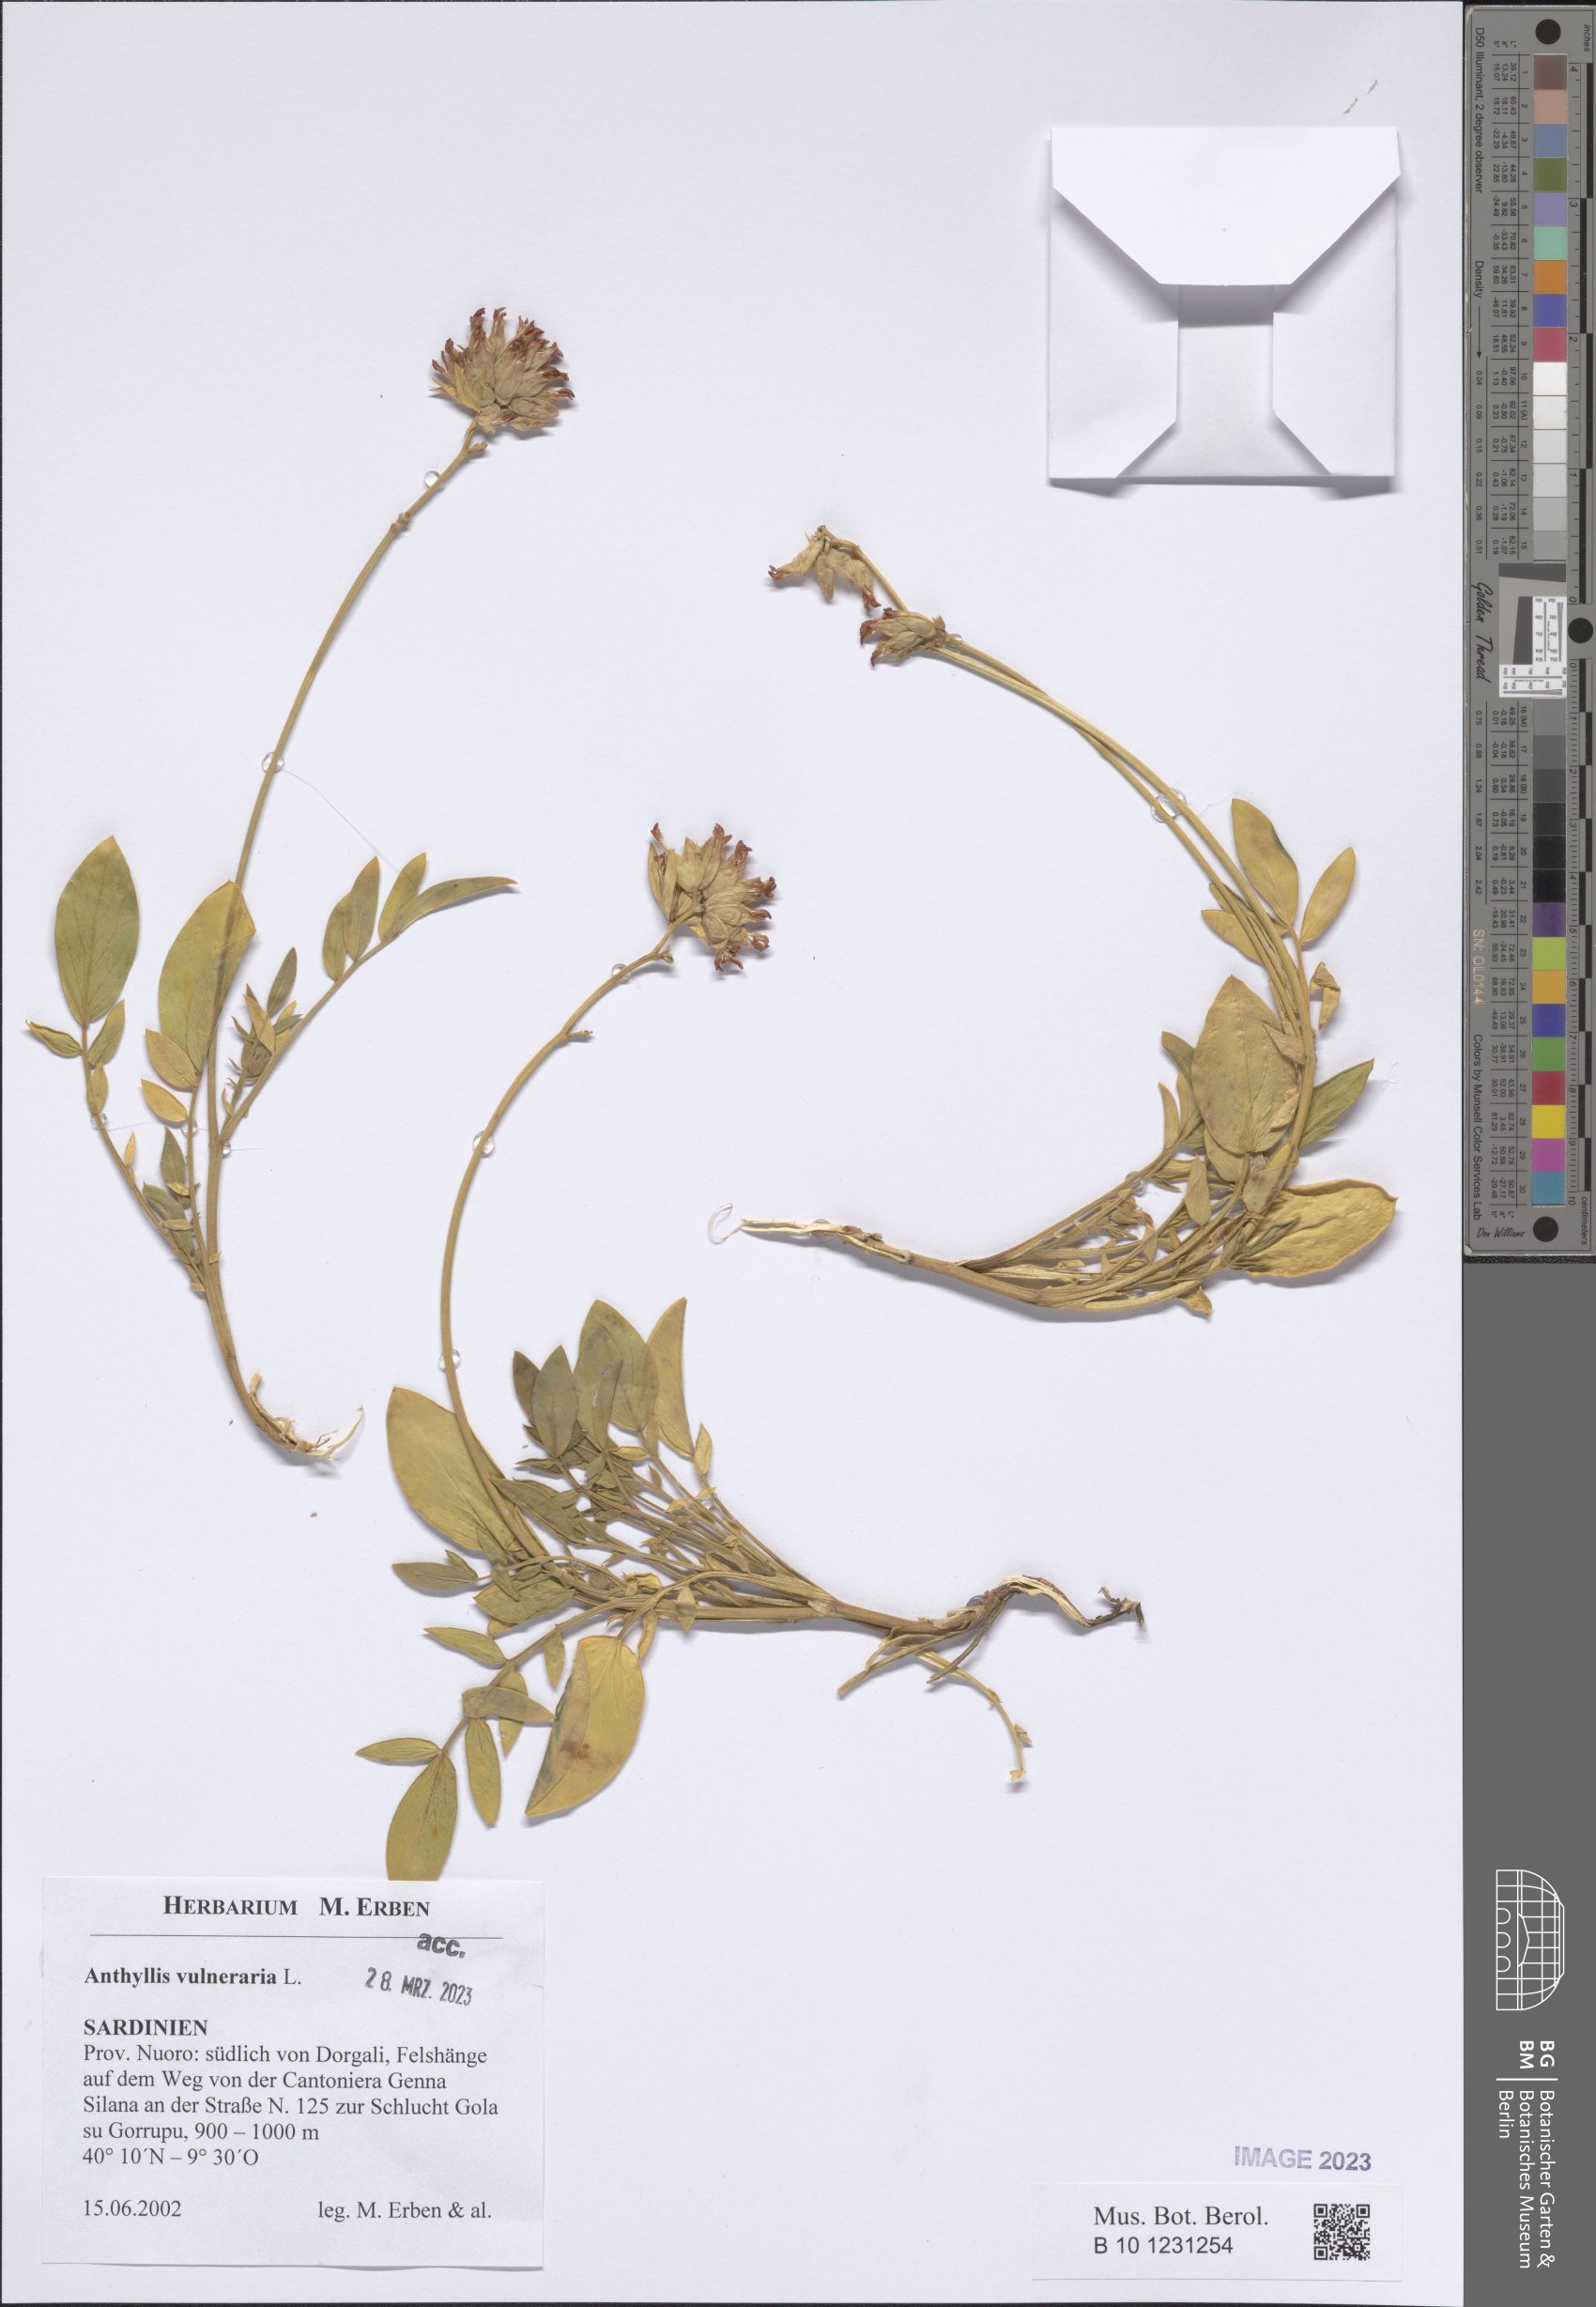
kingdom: Plantae
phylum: Tracheophyta
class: Magnoliopsida
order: Fabales
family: Fabaceae
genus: Anthyllis
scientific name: Anthyllis vulneraria
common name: Kidney vetch
